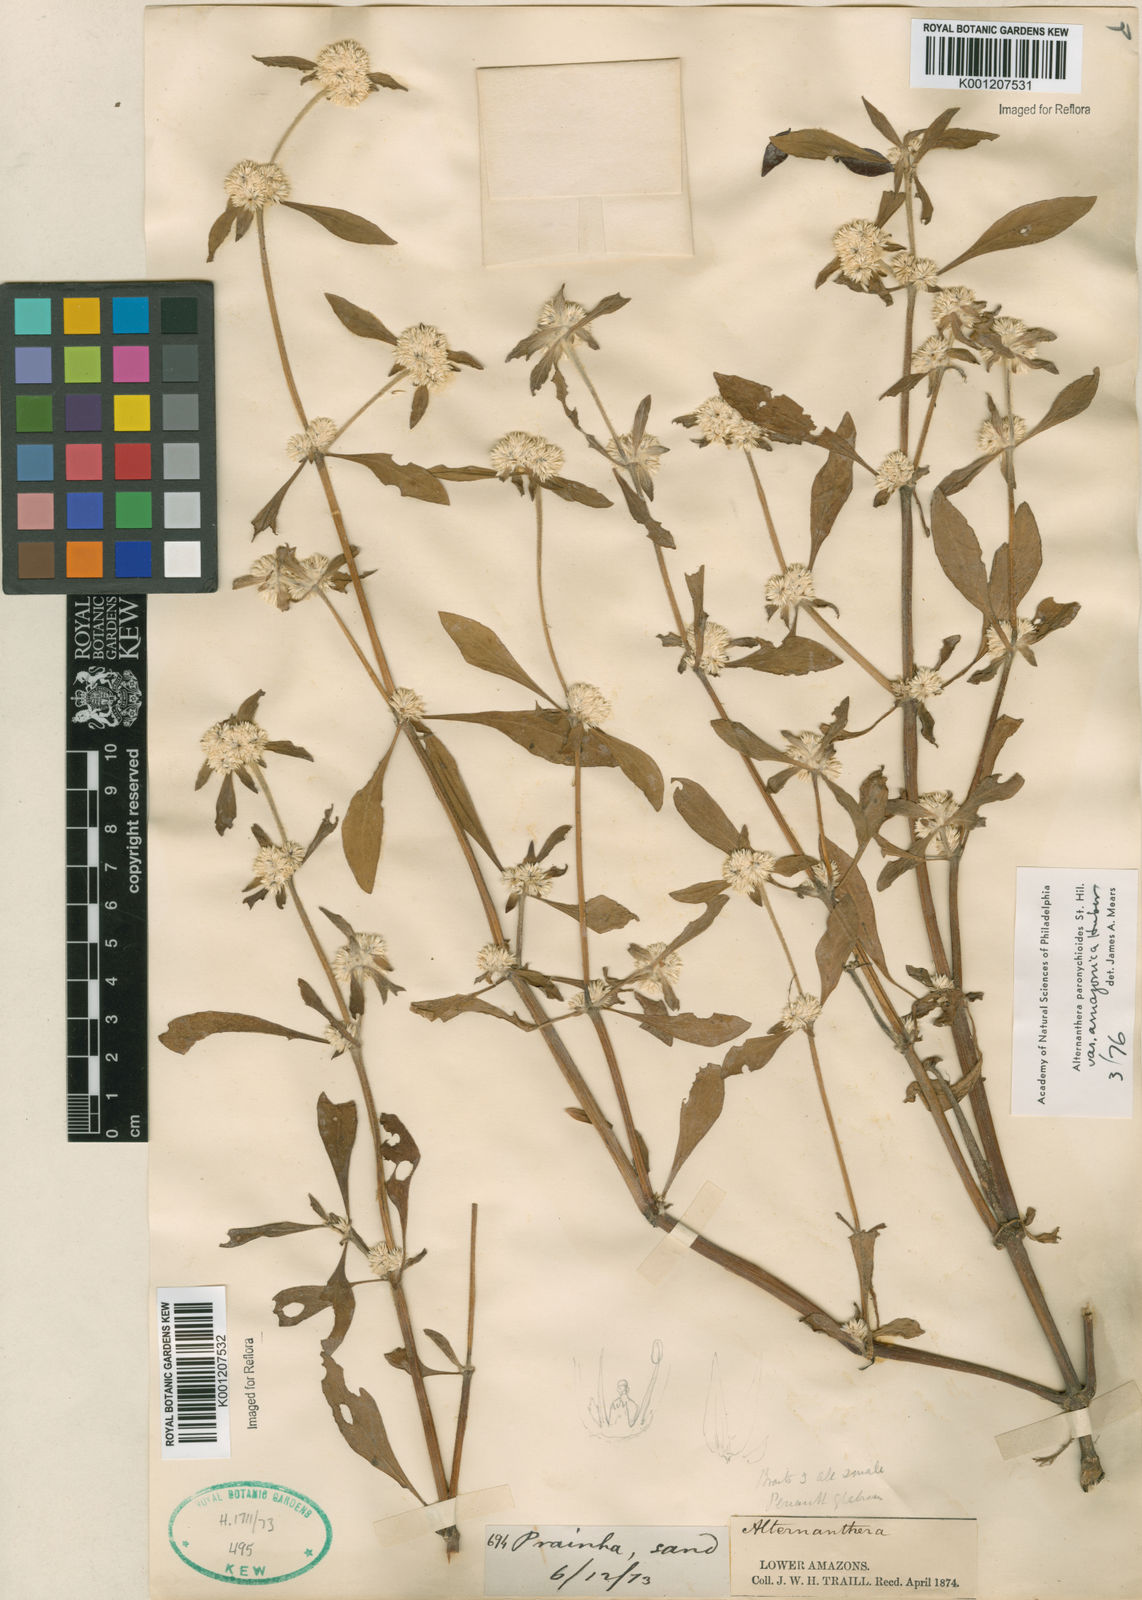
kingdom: Plantae
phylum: Tracheophyta
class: Magnoliopsida
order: Caryophyllales
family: Amaranthaceae
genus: Alternanthera
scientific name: Alternanthera paronychioides
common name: Smooth joyweed
